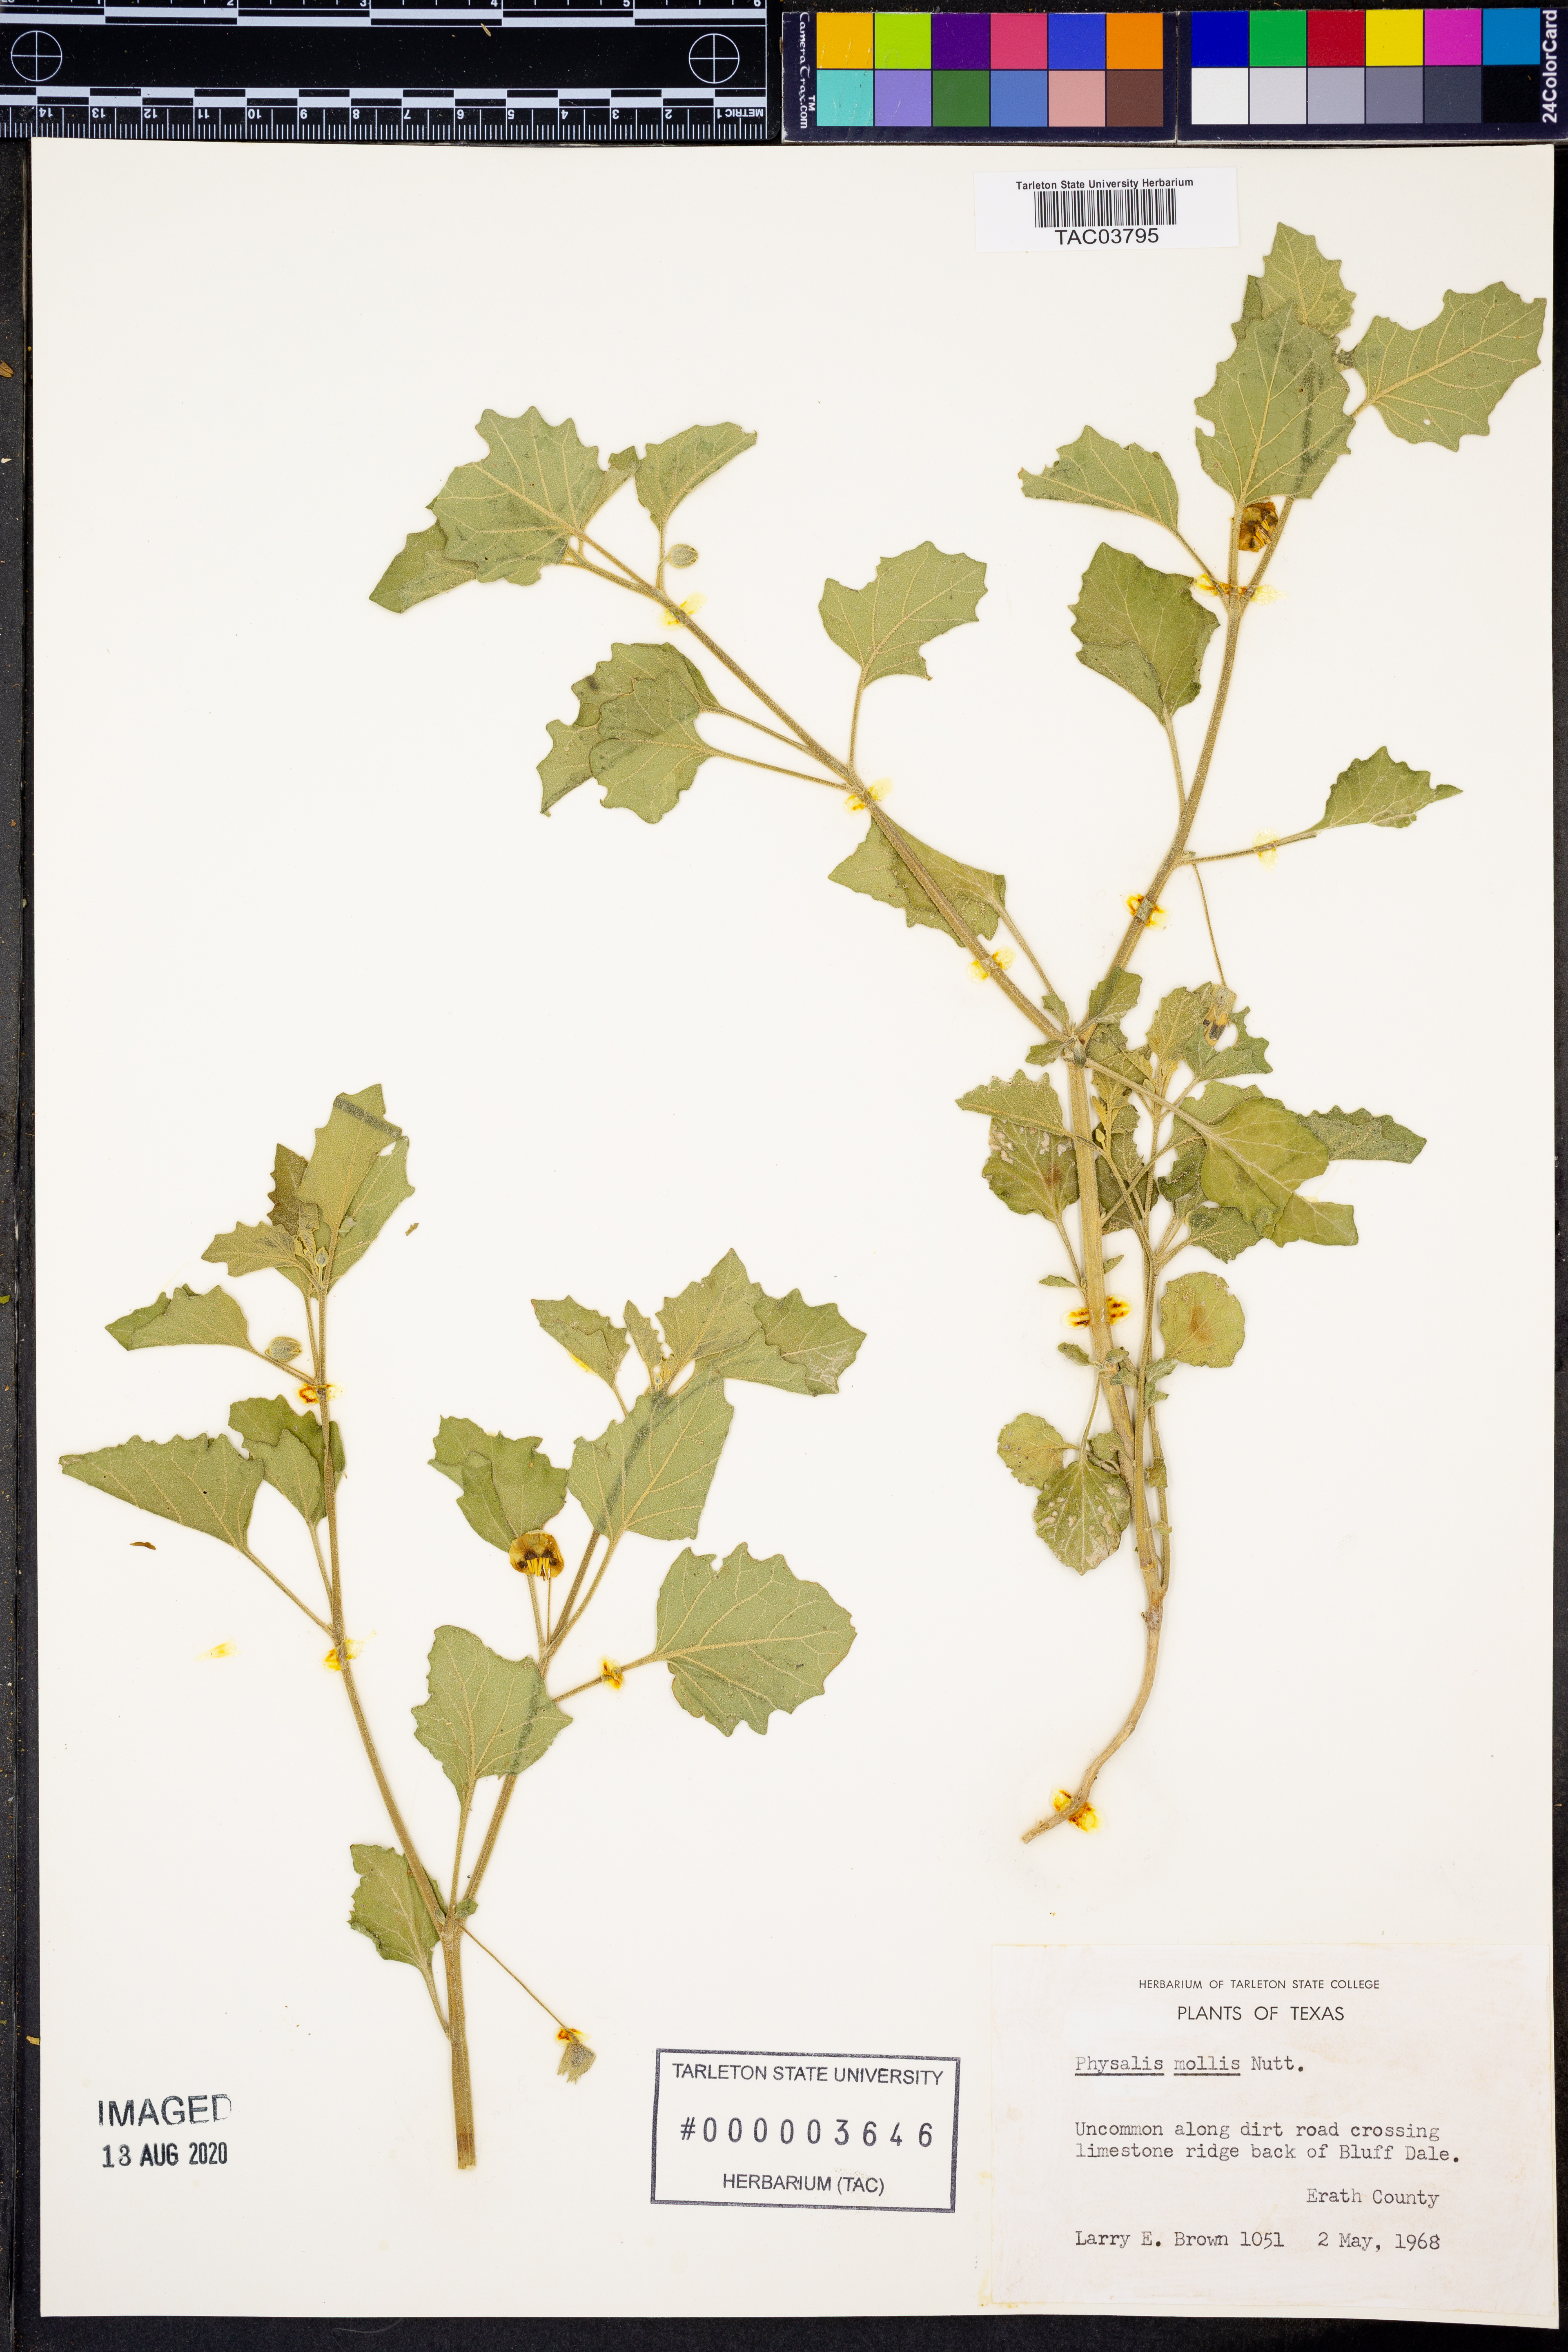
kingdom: Plantae
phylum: Tracheophyta
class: Magnoliopsida
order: Solanales
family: Solanaceae
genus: Physalis
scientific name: Physalis mollis
